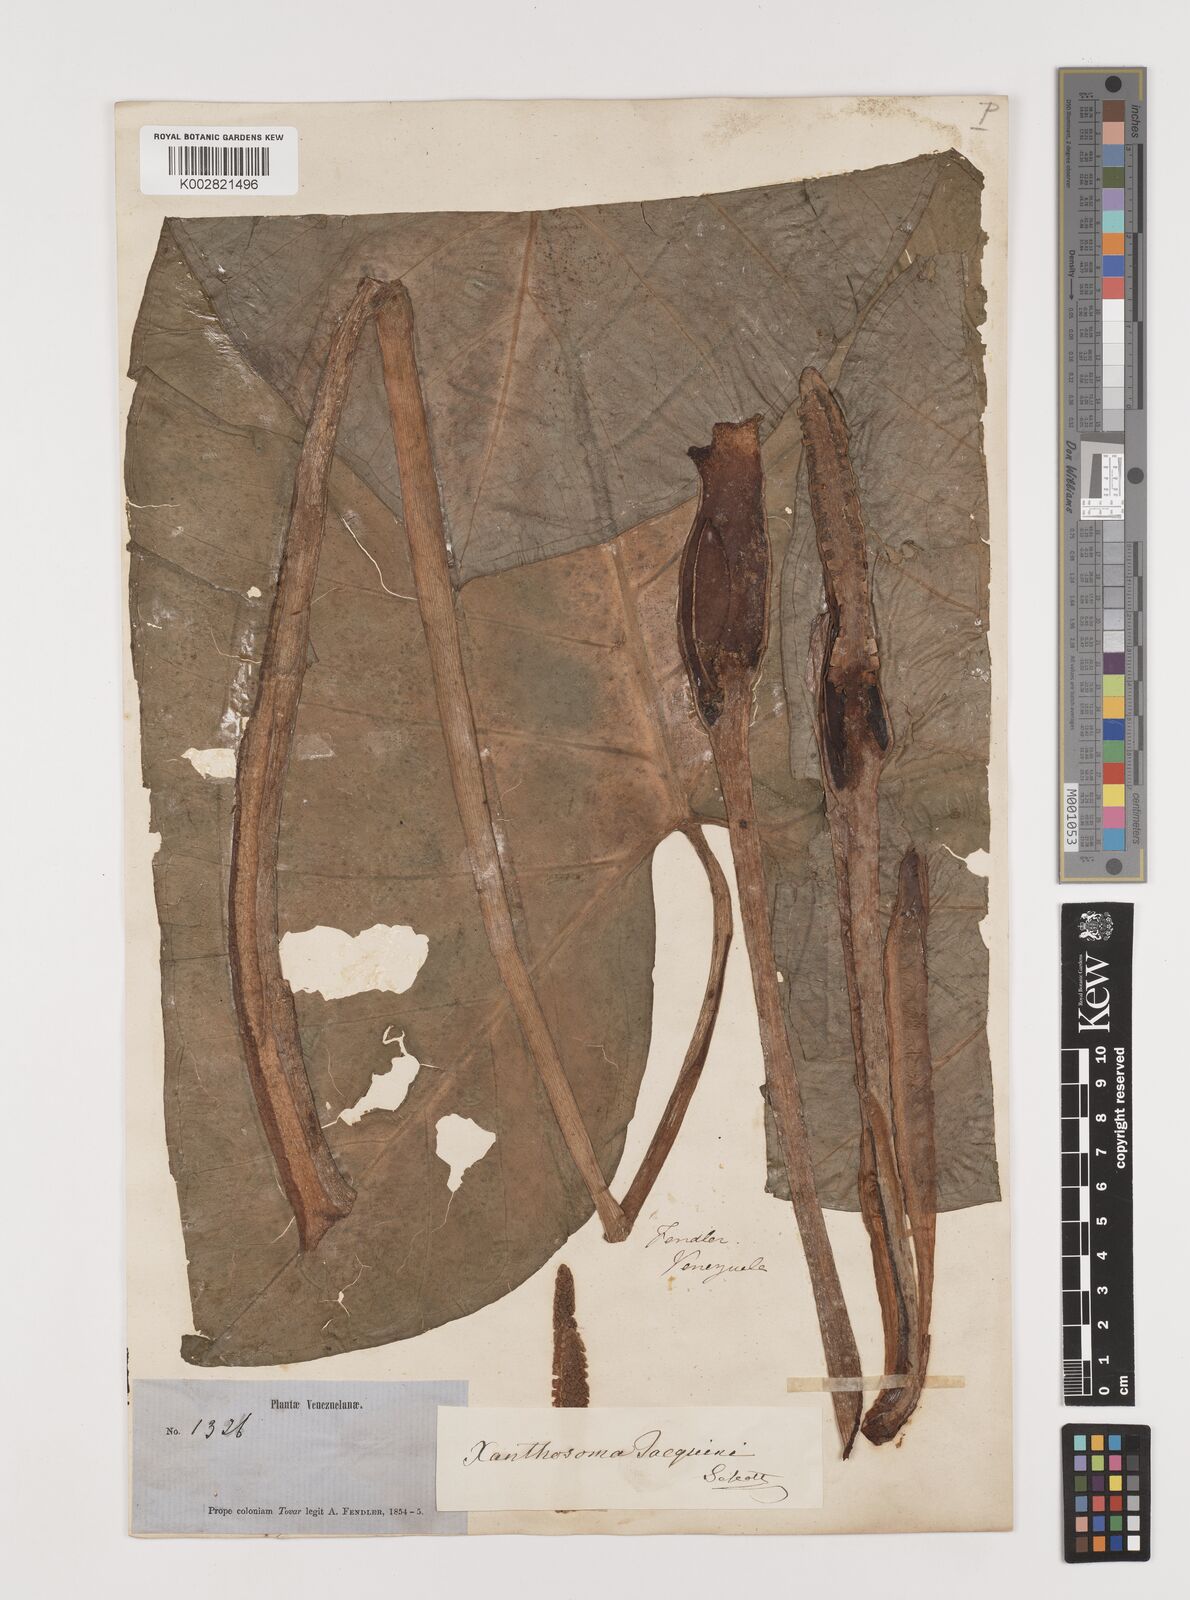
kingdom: Plantae
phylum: Tracheophyta
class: Liliopsida
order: Alismatales
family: Araceae
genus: Xanthosoma
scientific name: Xanthosoma undipes
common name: Tall elephant's ear
